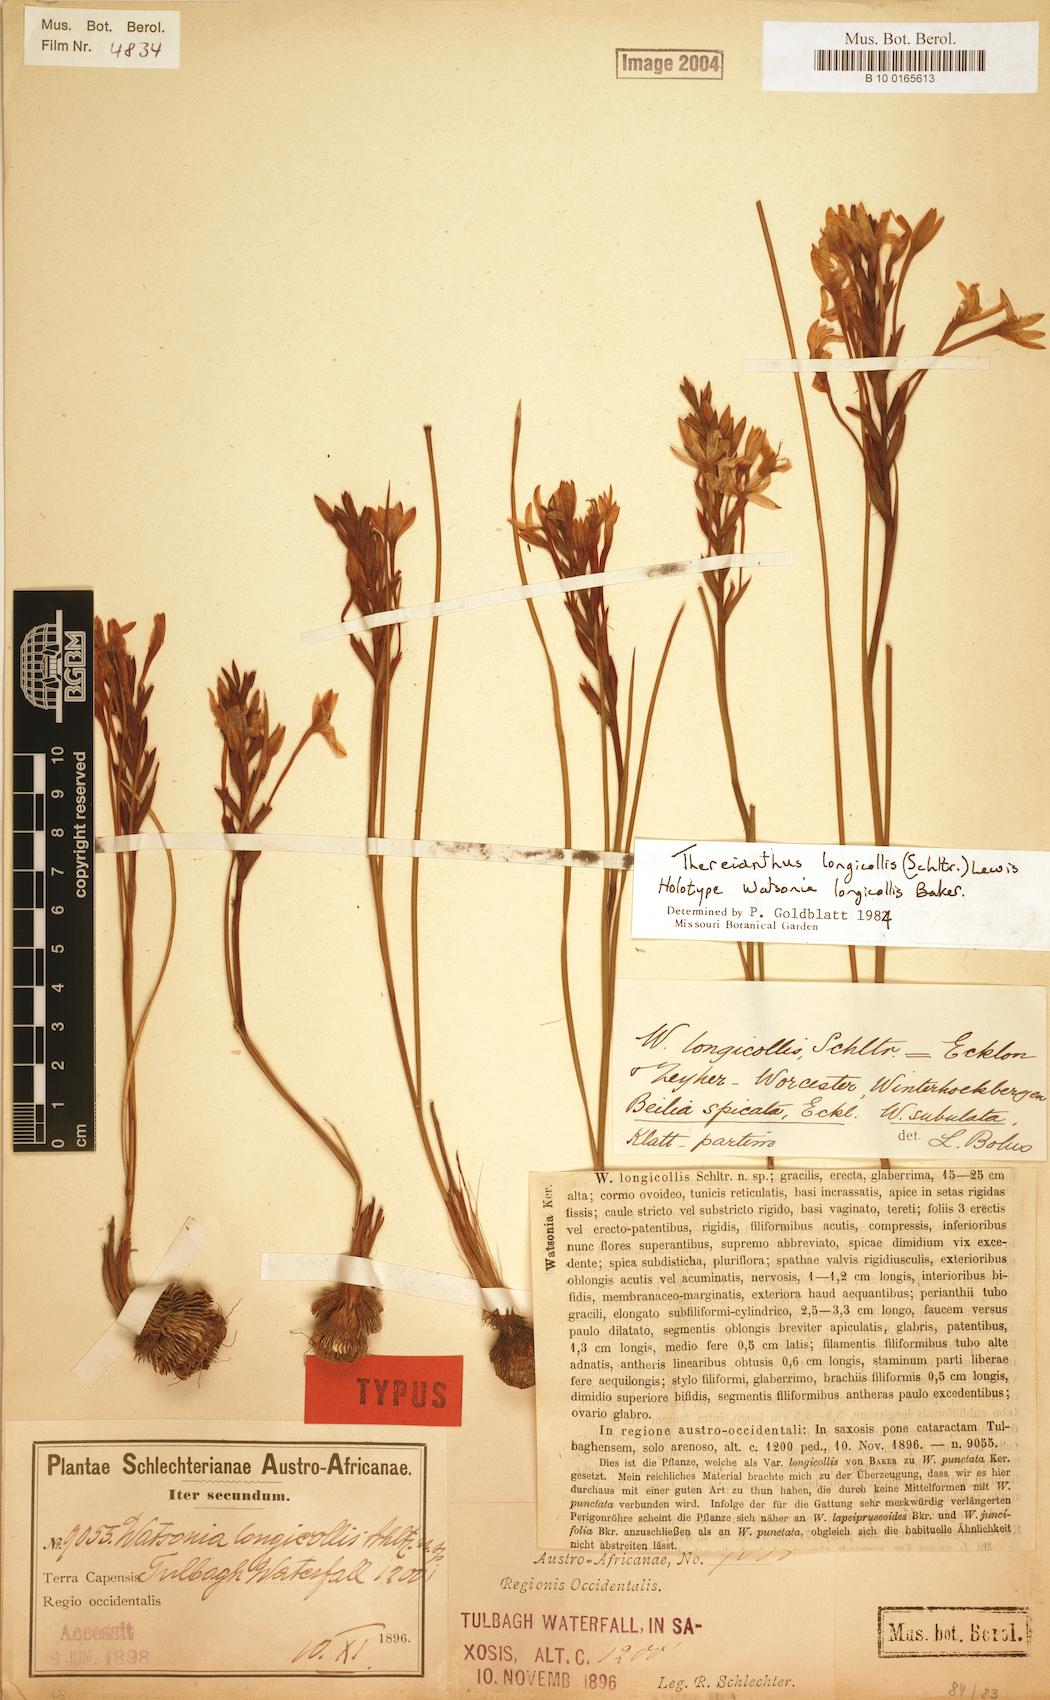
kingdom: Plantae
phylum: Tracheophyta
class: Liliopsida
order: Asparagales
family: Iridaceae
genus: Thereianthus
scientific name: Thereianthus longicollis
